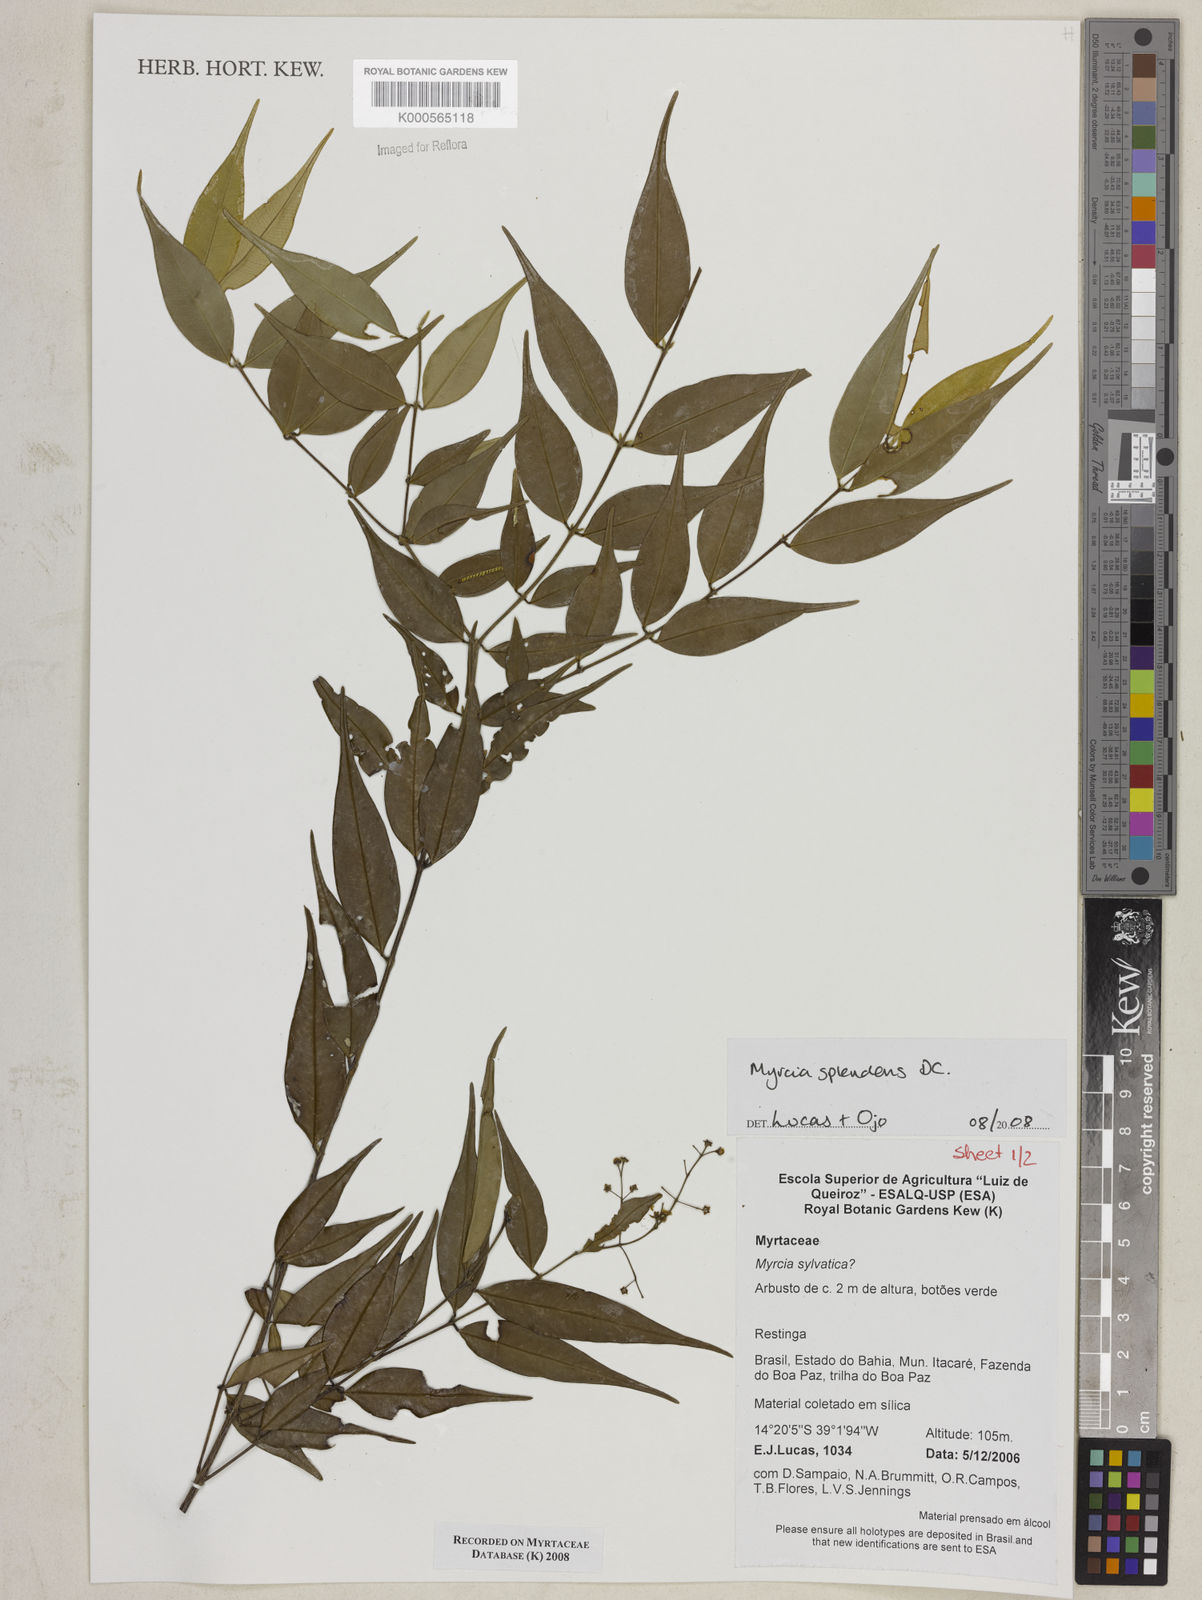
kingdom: Plantae
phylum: Tracheophyta
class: Magnoliopsida
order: Myrtales
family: Myrtaceae
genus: Myrcia
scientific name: Myrcia splendens
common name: Surinam cherry
